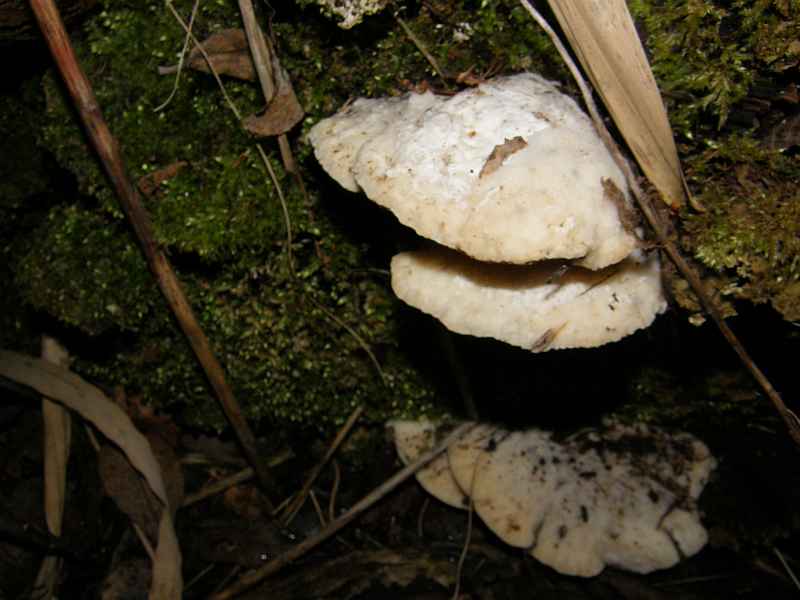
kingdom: Fungi
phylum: Basidiomycota
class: Agaricomycetes
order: Polyporales
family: Polyporaceae
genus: Trametes
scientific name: Trametes suaveolens
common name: vellugtende læderporesvamp
